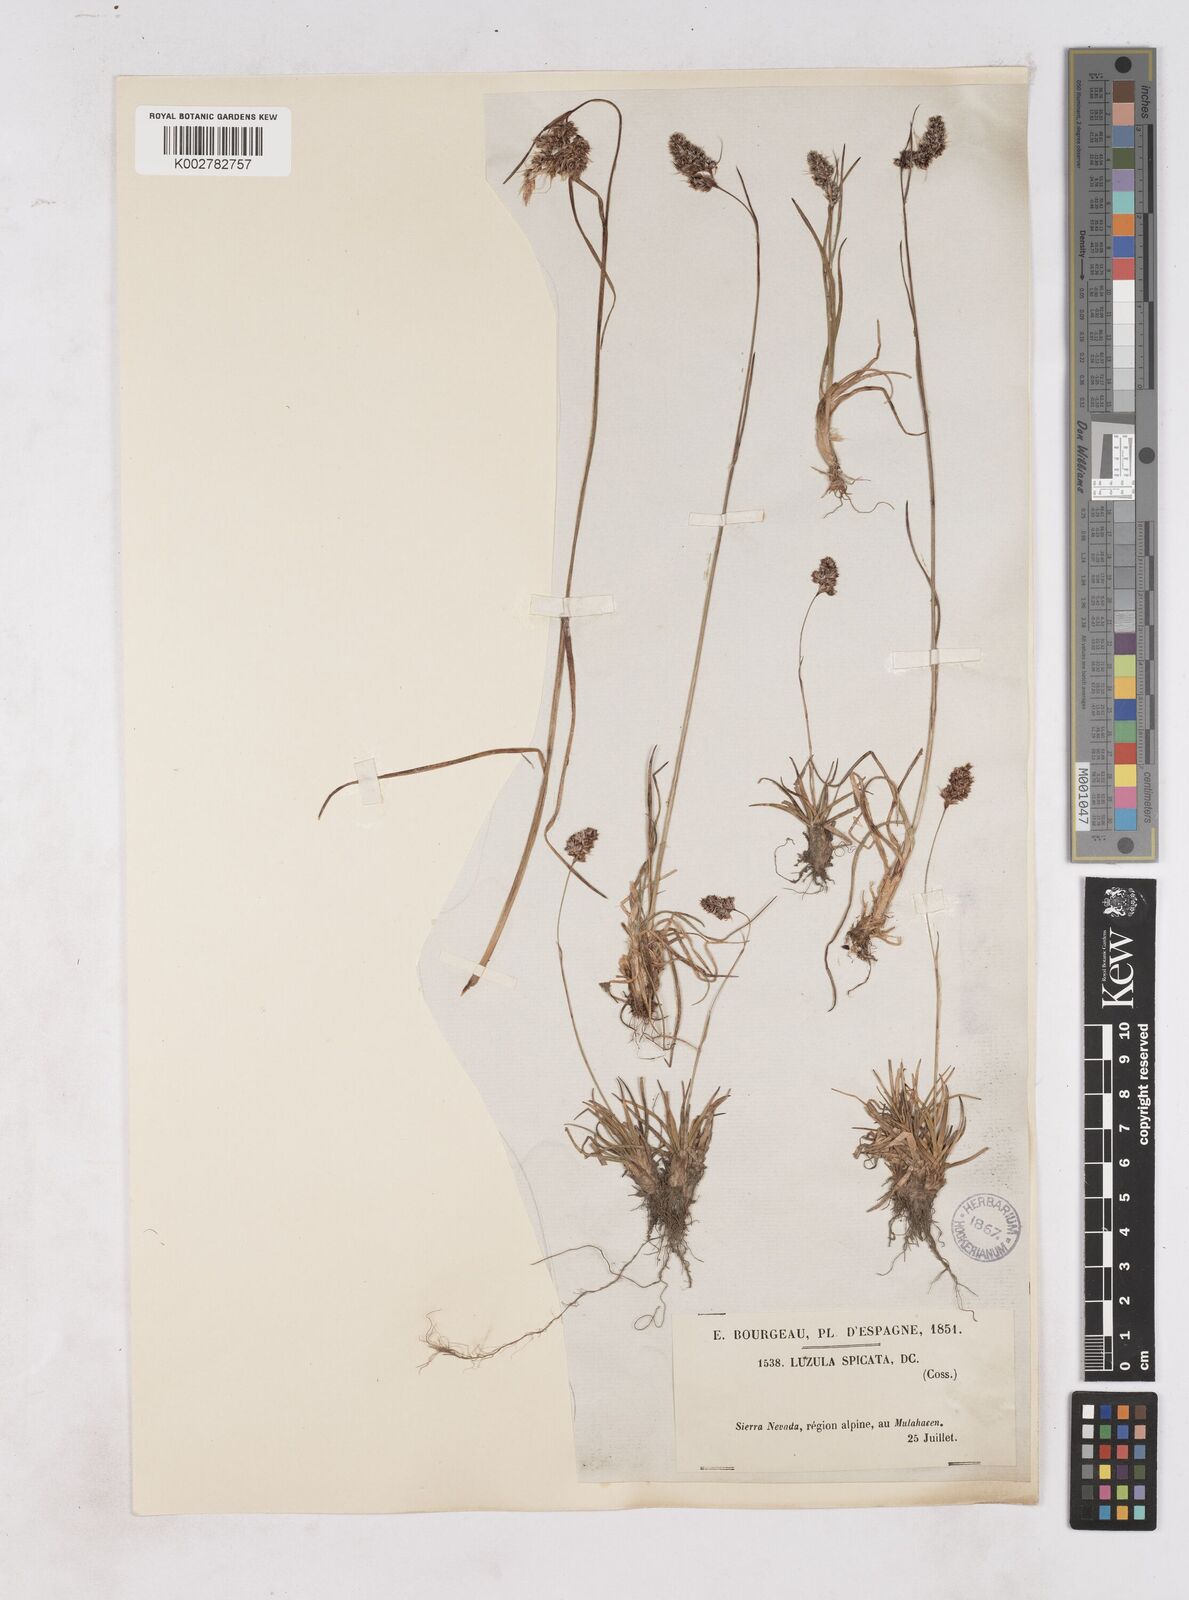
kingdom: Plantae
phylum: Tracheophyta
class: Liliopsida
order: Poales
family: Juncaceae
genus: Luzula
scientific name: Luzula spicata
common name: Spiked wood-rush
